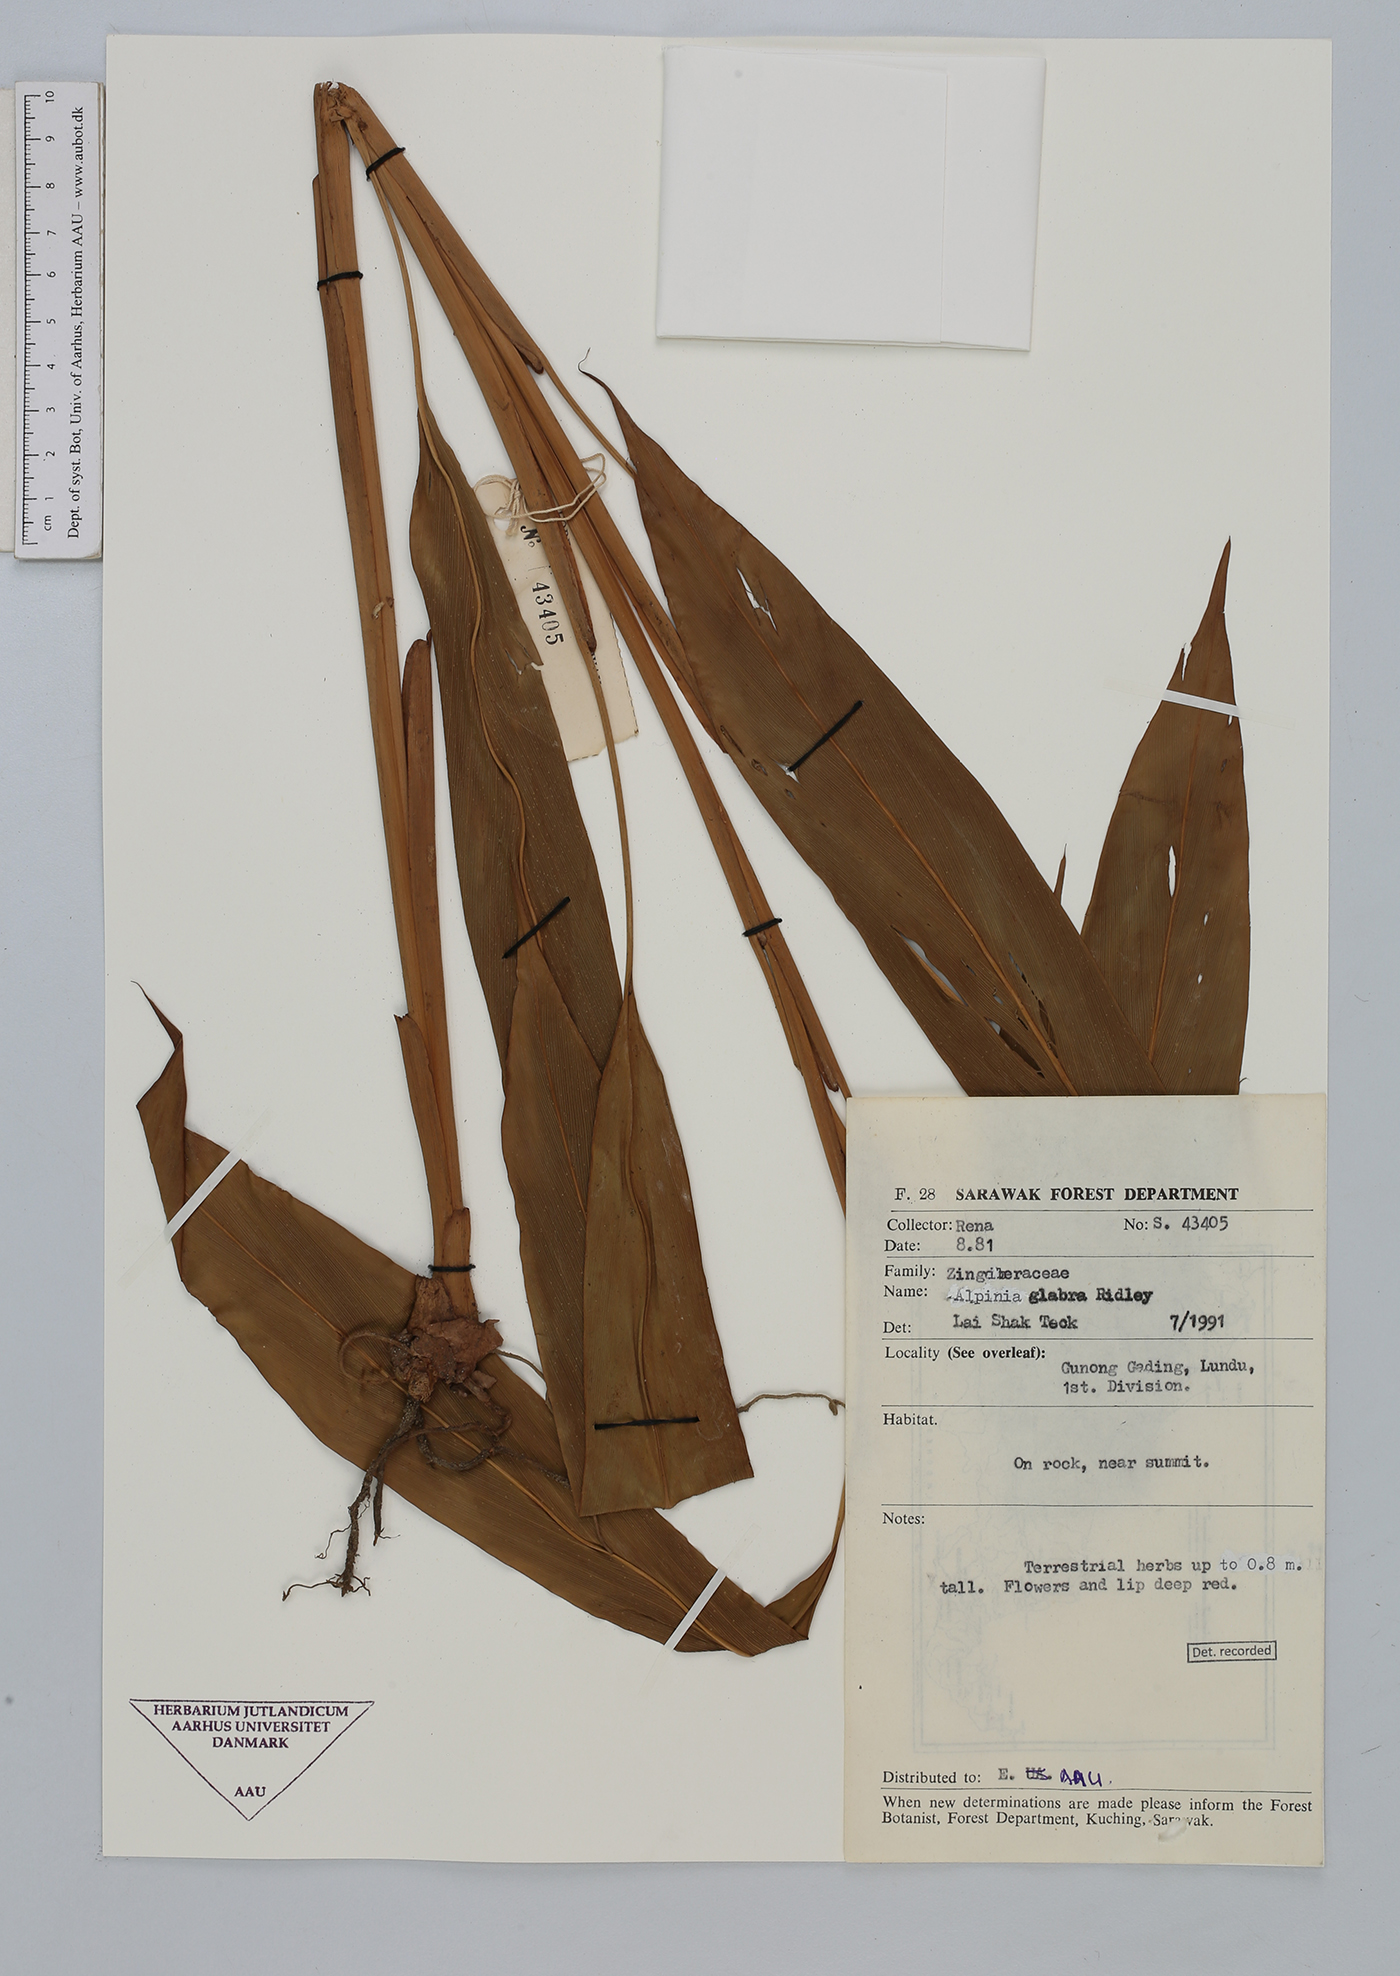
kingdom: Plantae
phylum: Tracheophyta
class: Liliopsida
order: Zingiberales
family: Zingiberaceae
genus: Alpinia
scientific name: Alpinia glabra
